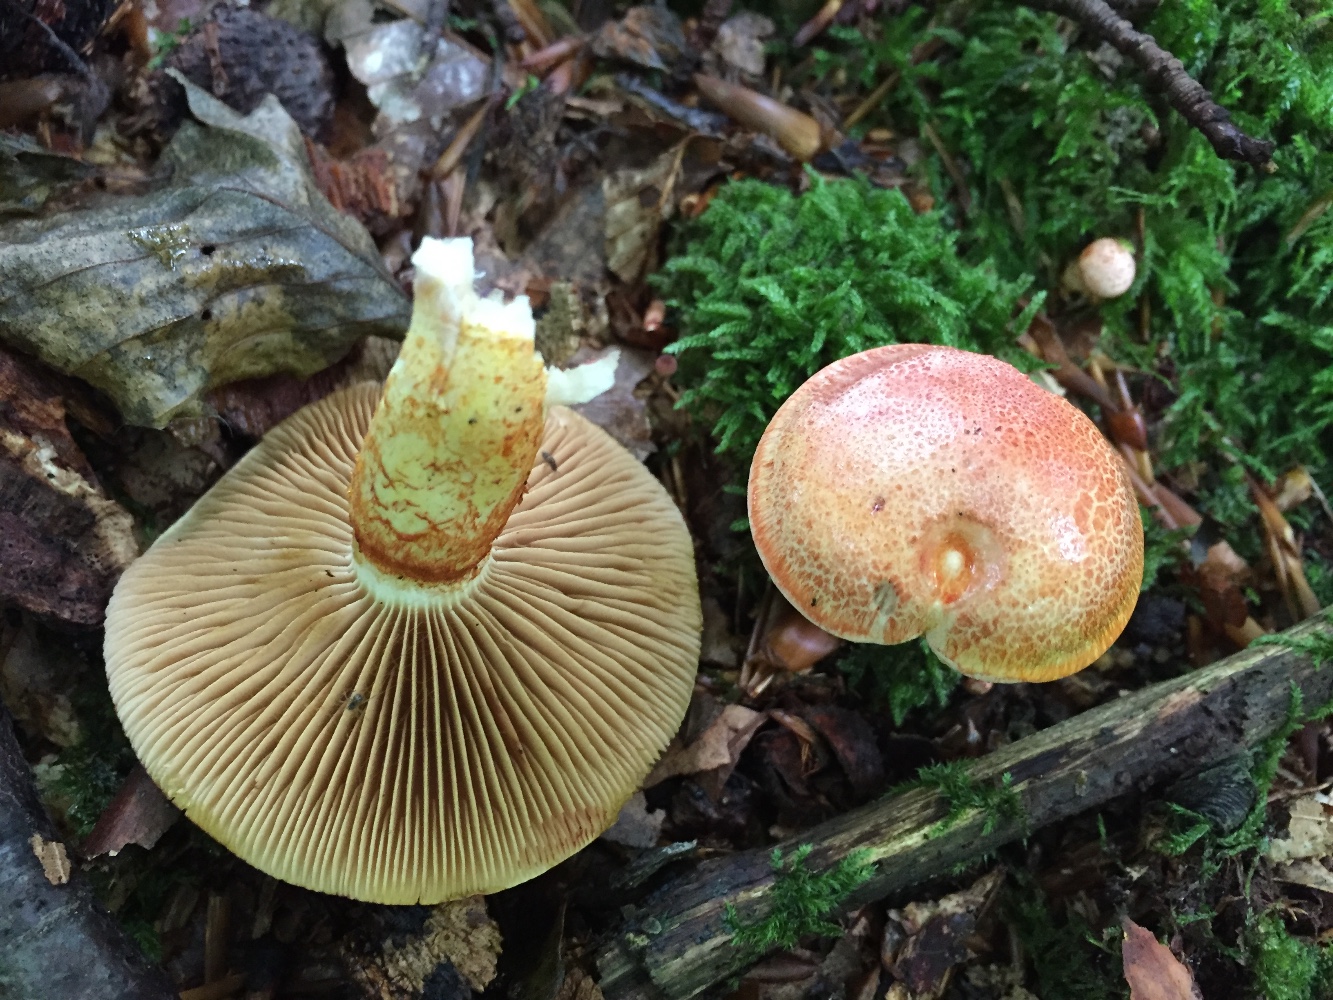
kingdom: Fungi
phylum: Basidiomycota
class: Agaricomycetes
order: Agaricales
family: Cortinariaceae
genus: Cortinarius
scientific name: Cortinarius bolaris
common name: cinnoberskællet slørhat
